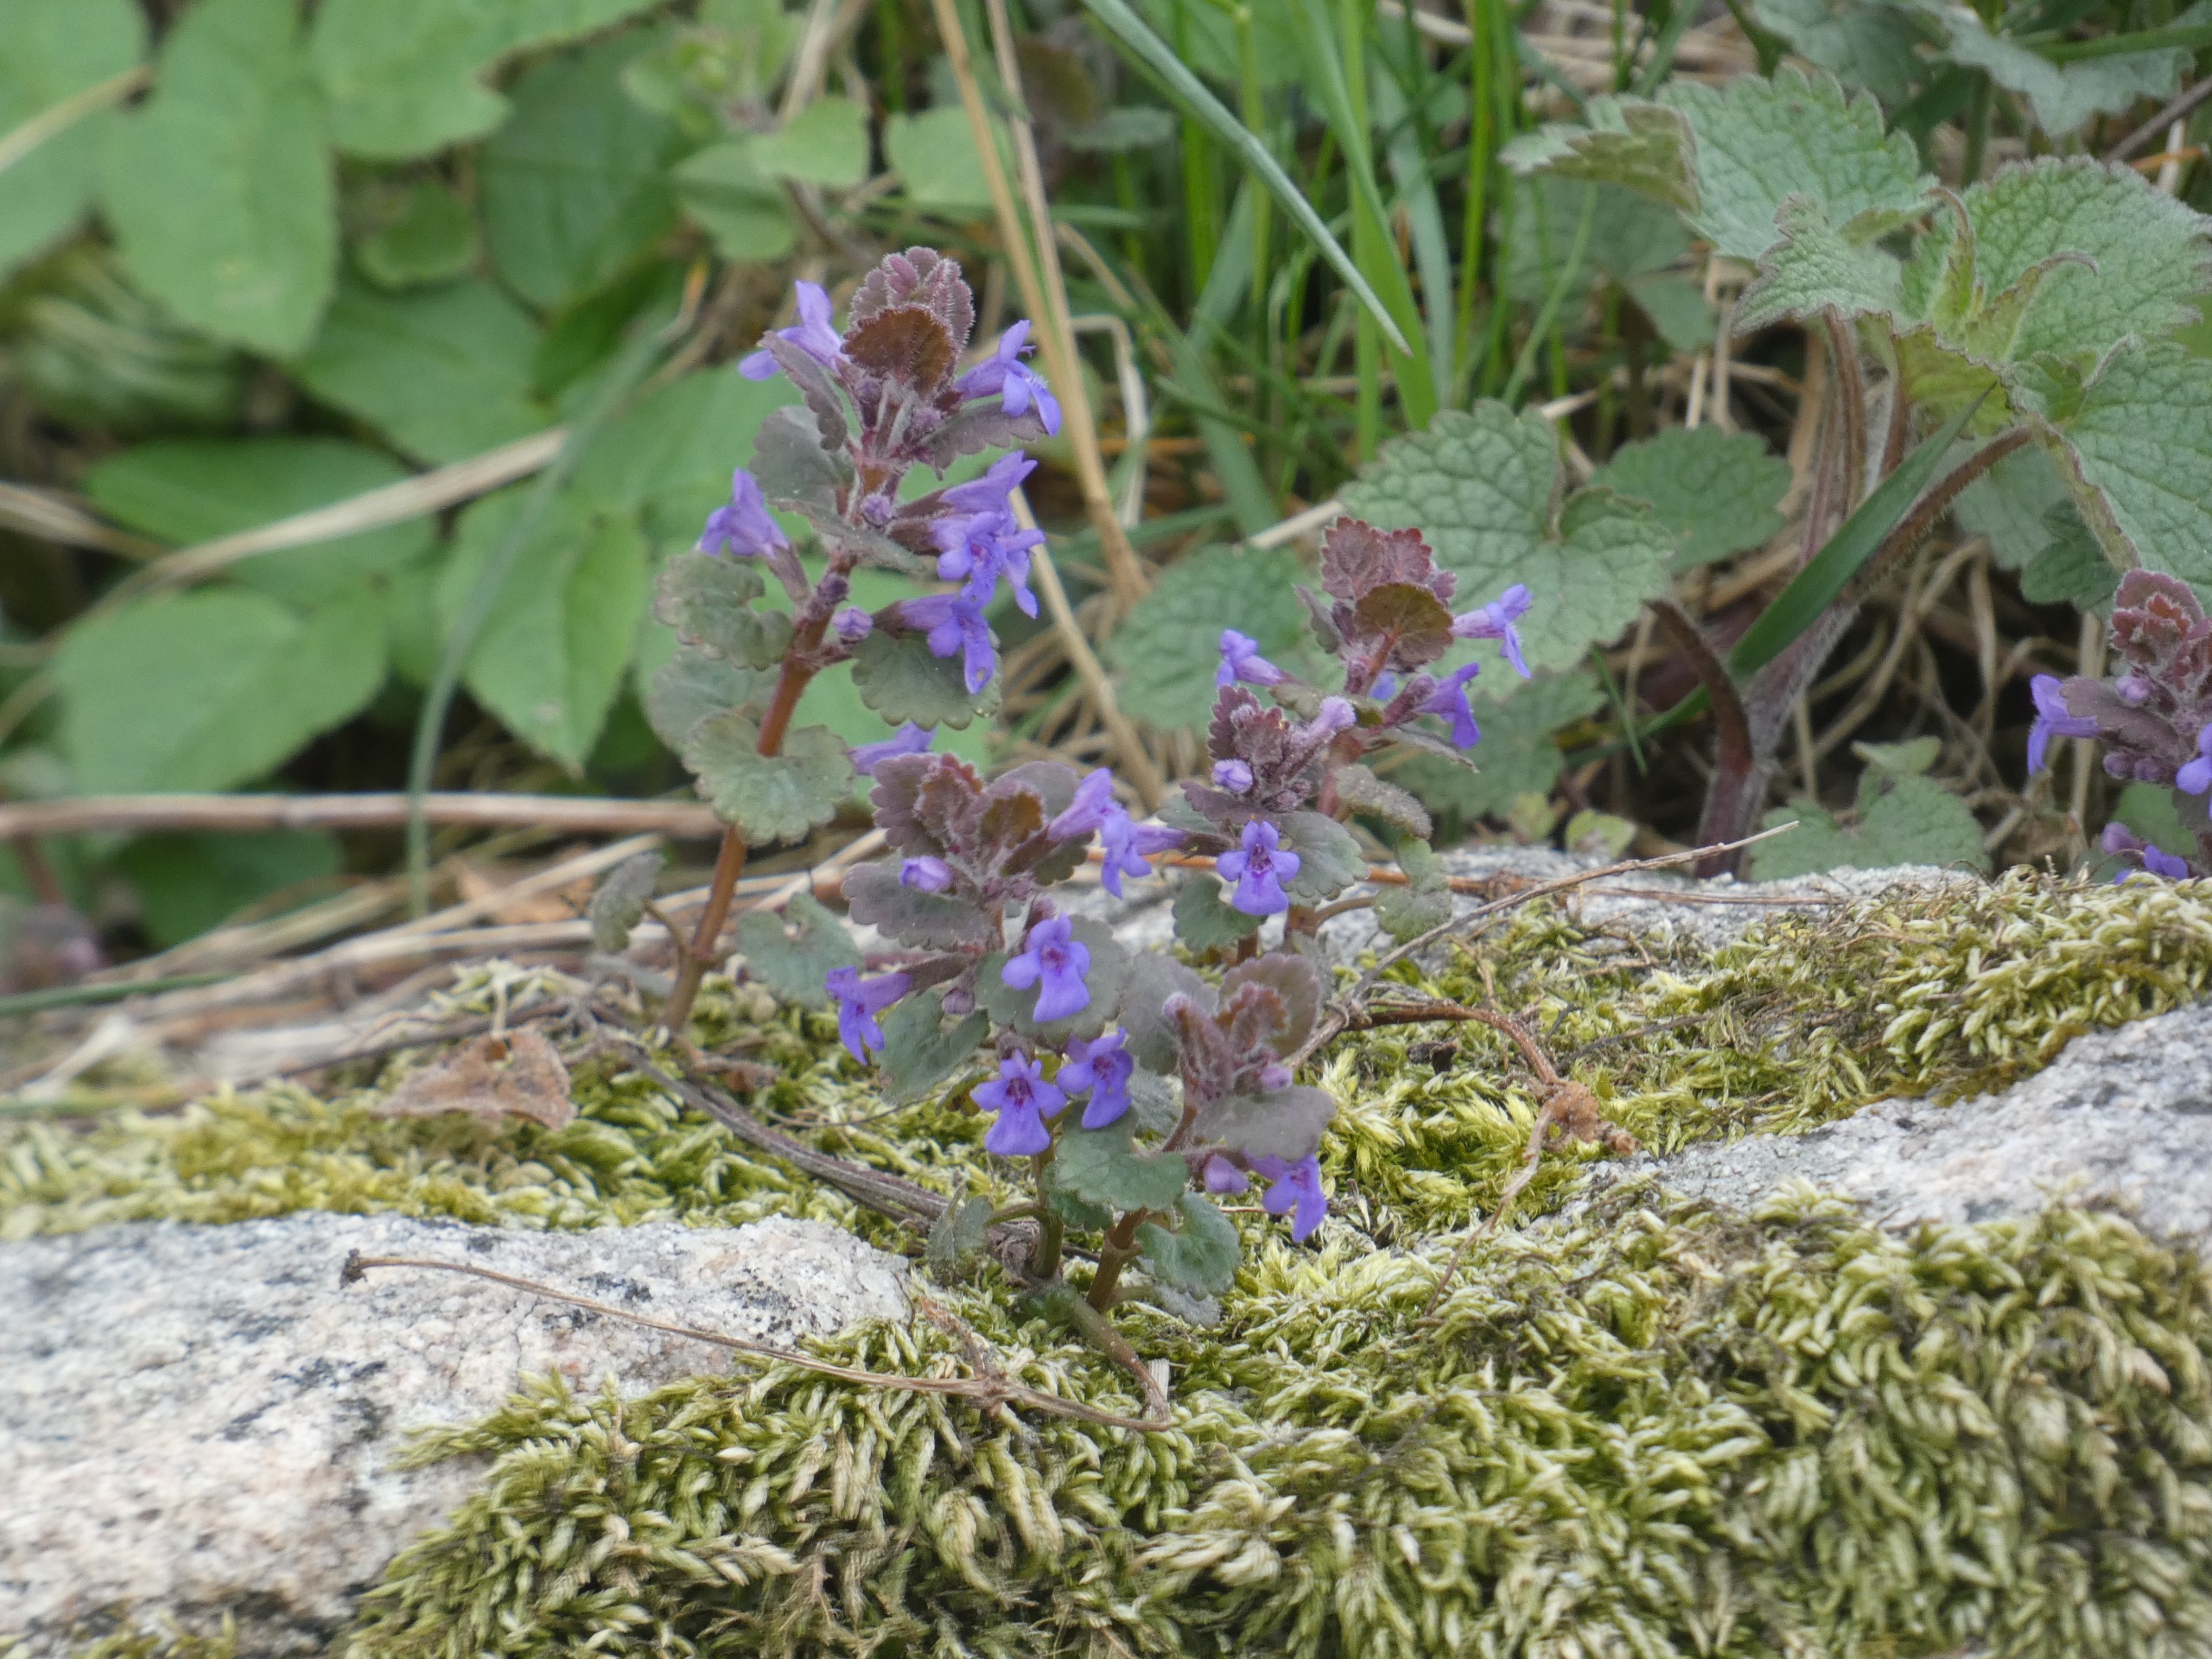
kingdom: Plantae
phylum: Tracheophyta
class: Magnoliopsida
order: Lamiales
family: Lamiaceae
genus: Glechoma
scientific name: Glechoma hederacea
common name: Korsknap
